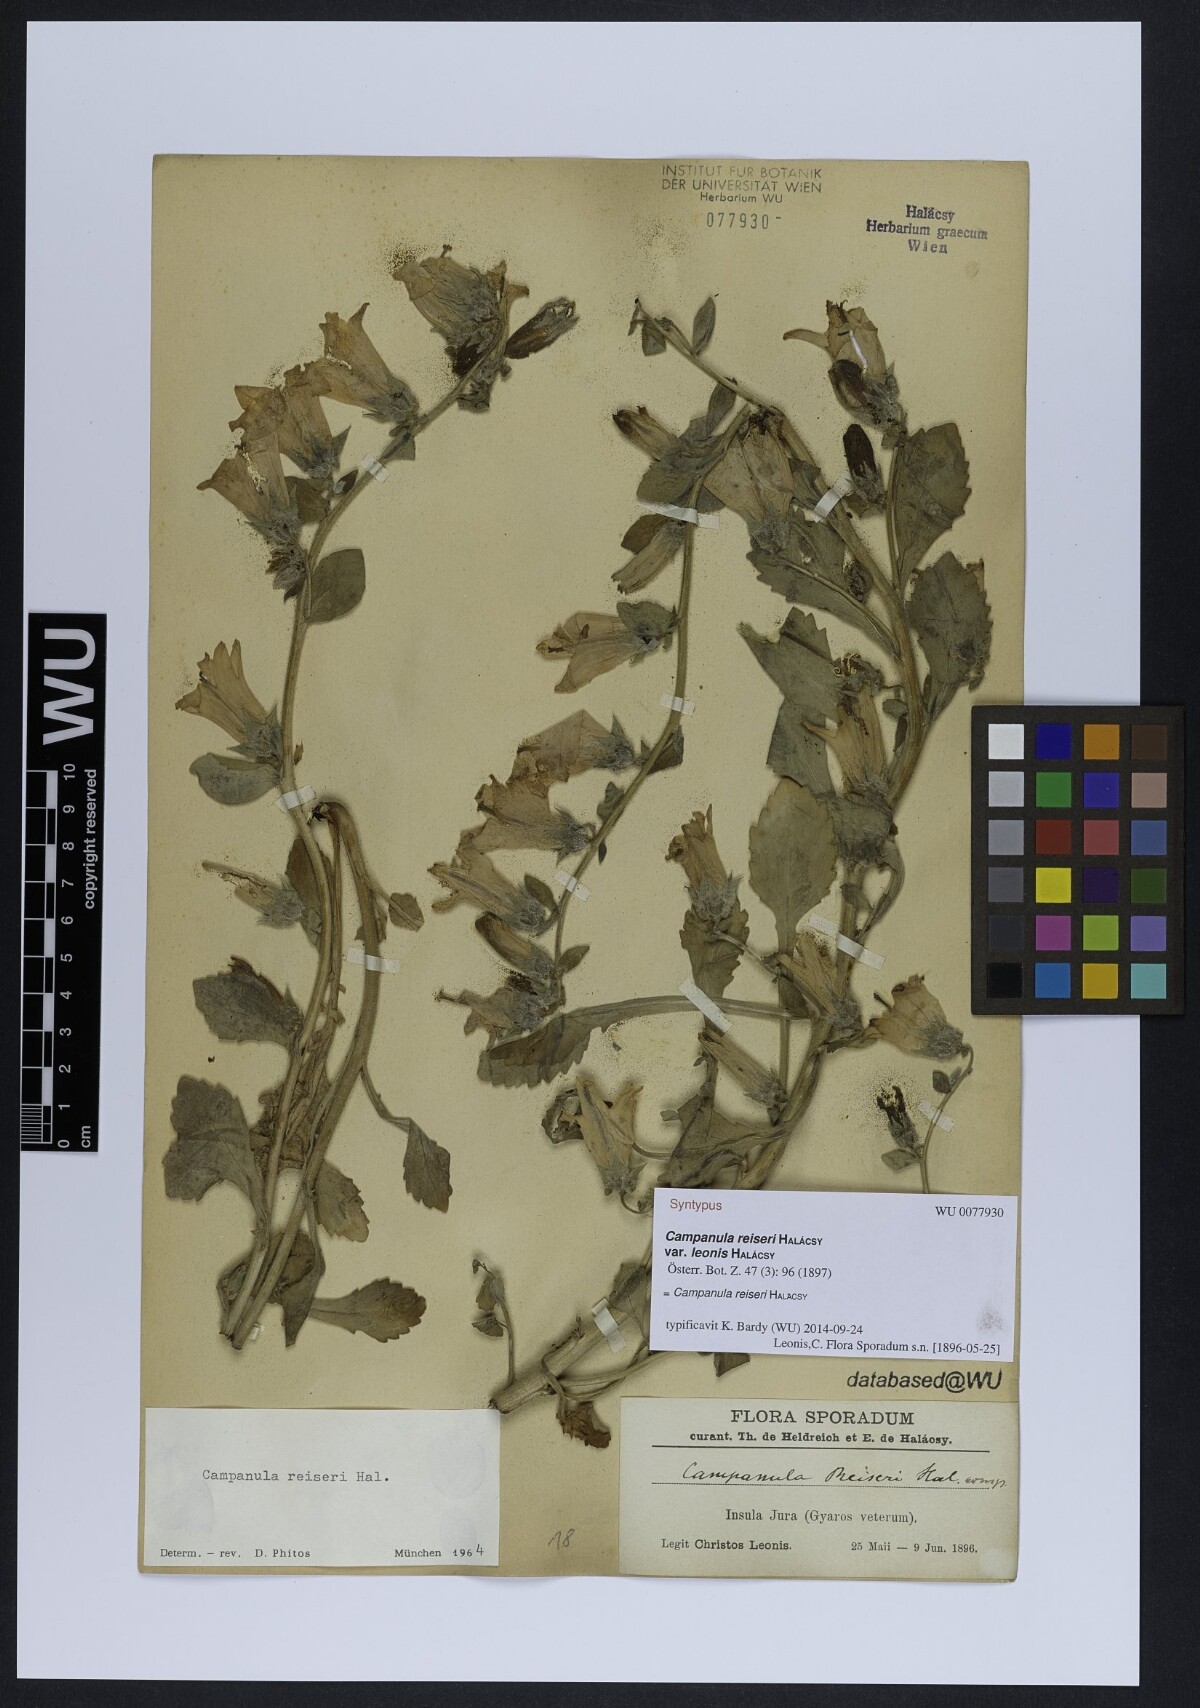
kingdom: Plantae
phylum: Tracheophyta
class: Magnoliopsida
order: Asterales
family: Campanulaceae
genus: Campanula
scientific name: Campanula reiseri
